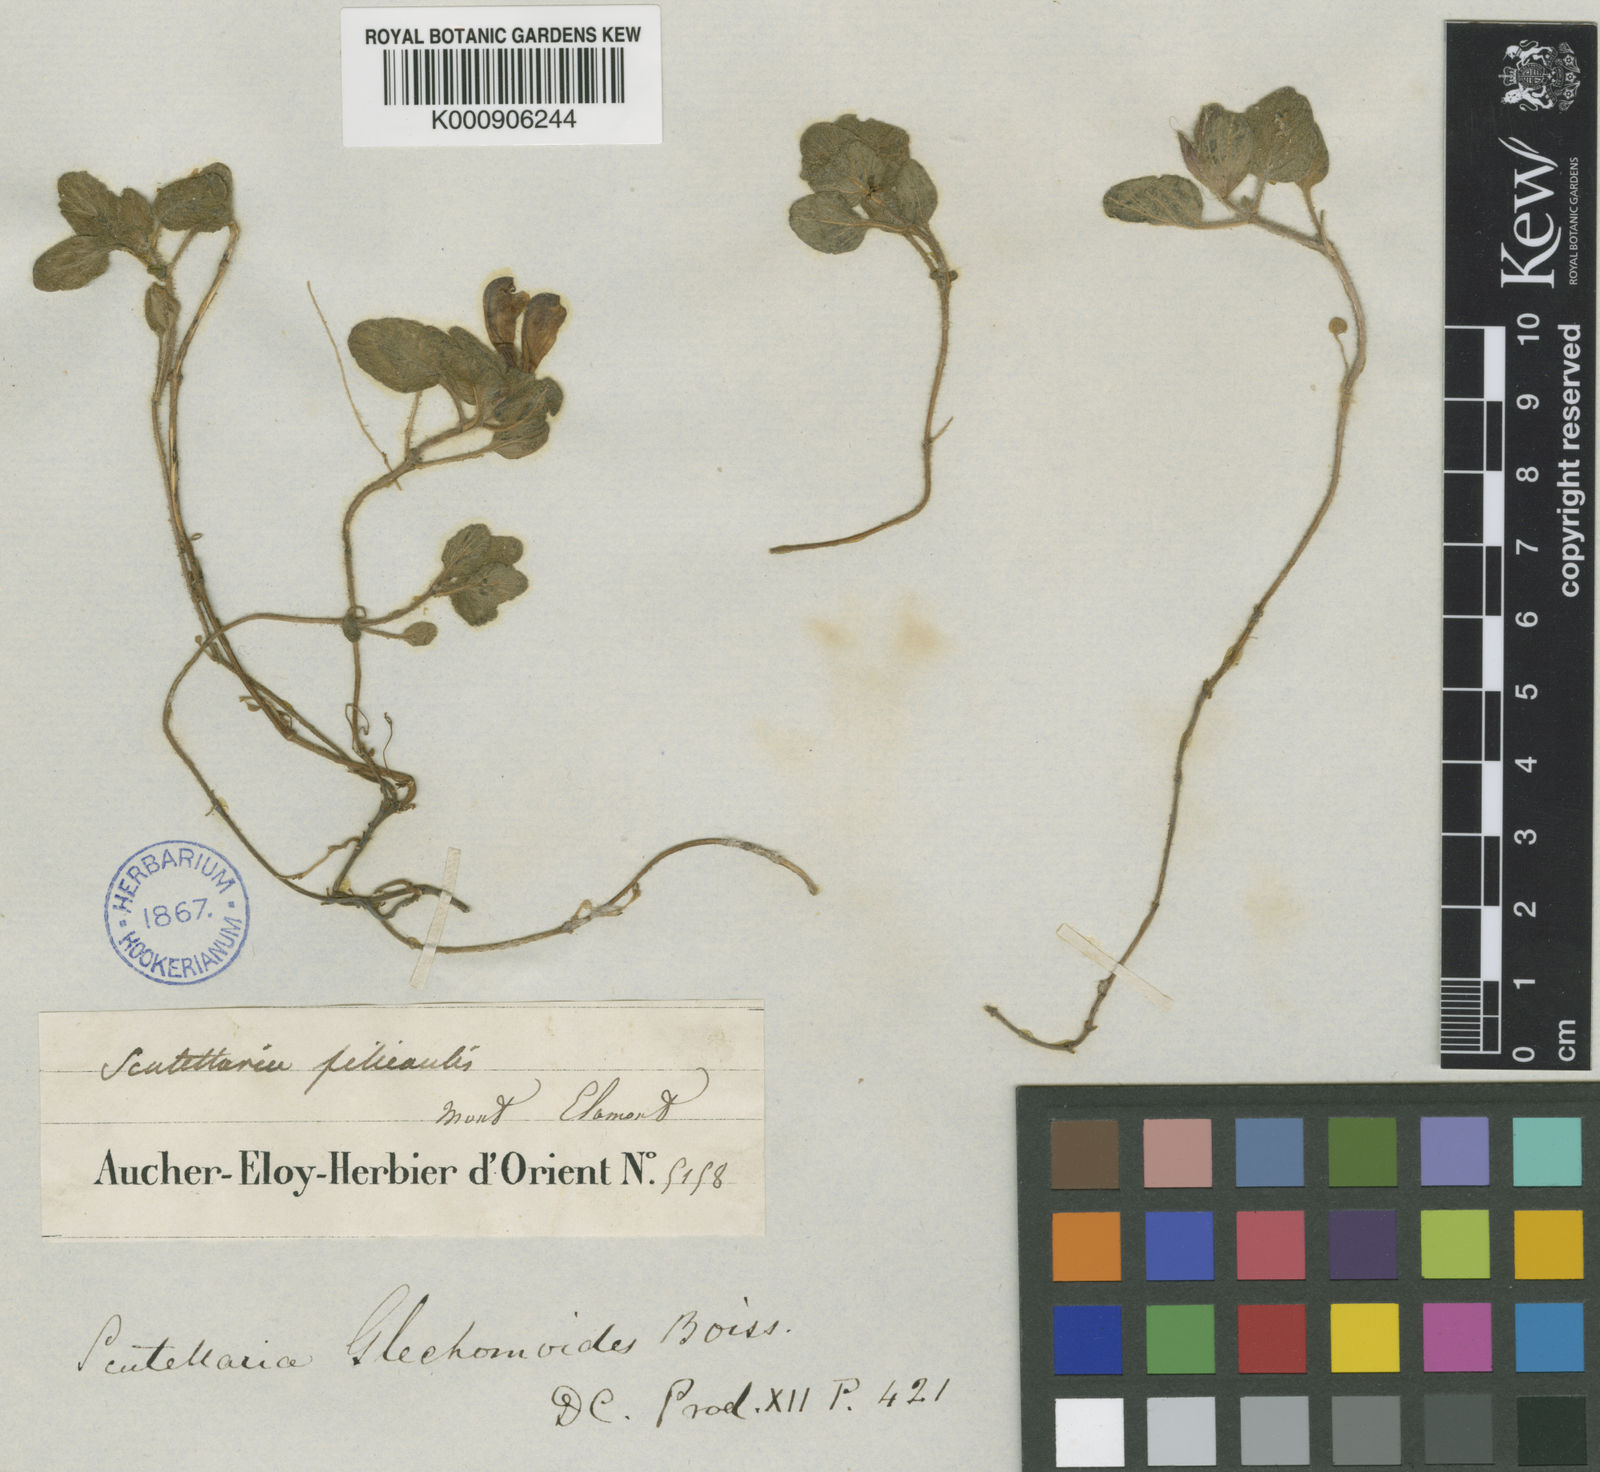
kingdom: Plantae
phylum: Tracheophyta
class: Magnoliopsida
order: Lamiales
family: Lamiaceae
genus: Scutellaria
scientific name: Scutellaria
